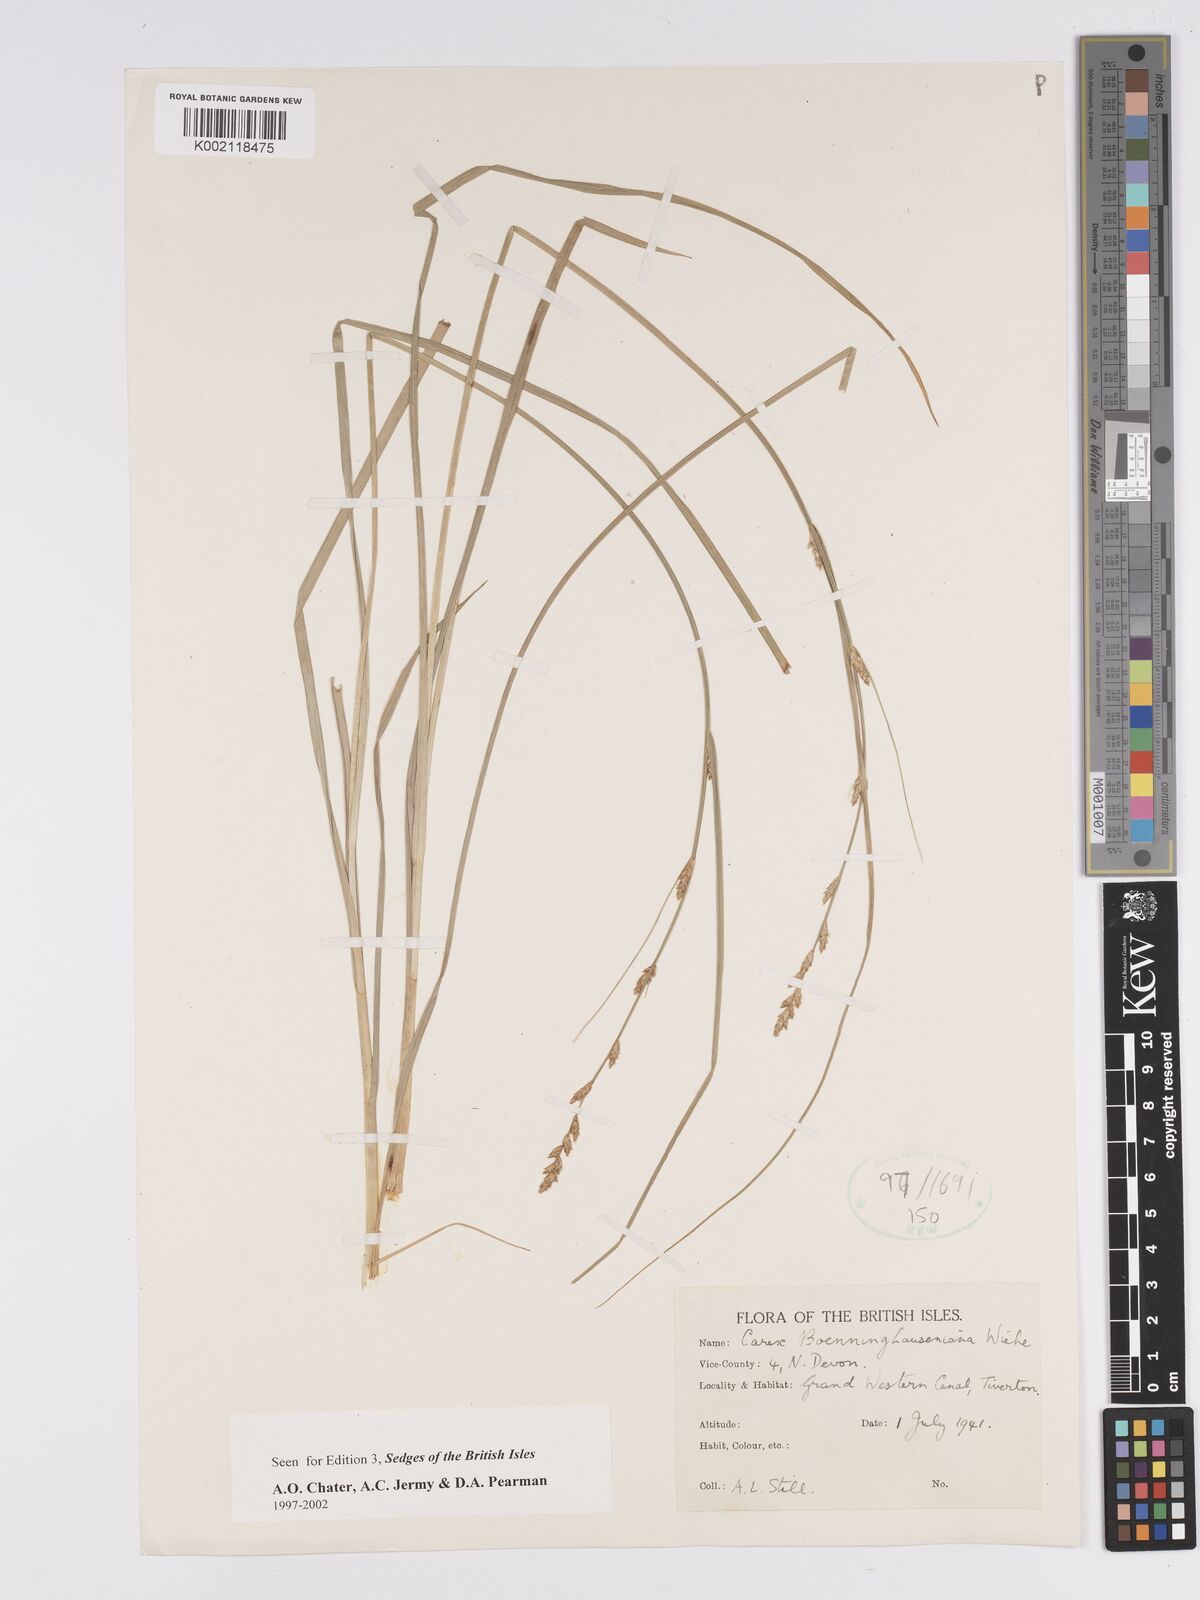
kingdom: Plantae
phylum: Tracheophyta
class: Liliopsida
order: Poales
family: Cyperaceae
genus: Carex
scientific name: Carex boenninghausiana
